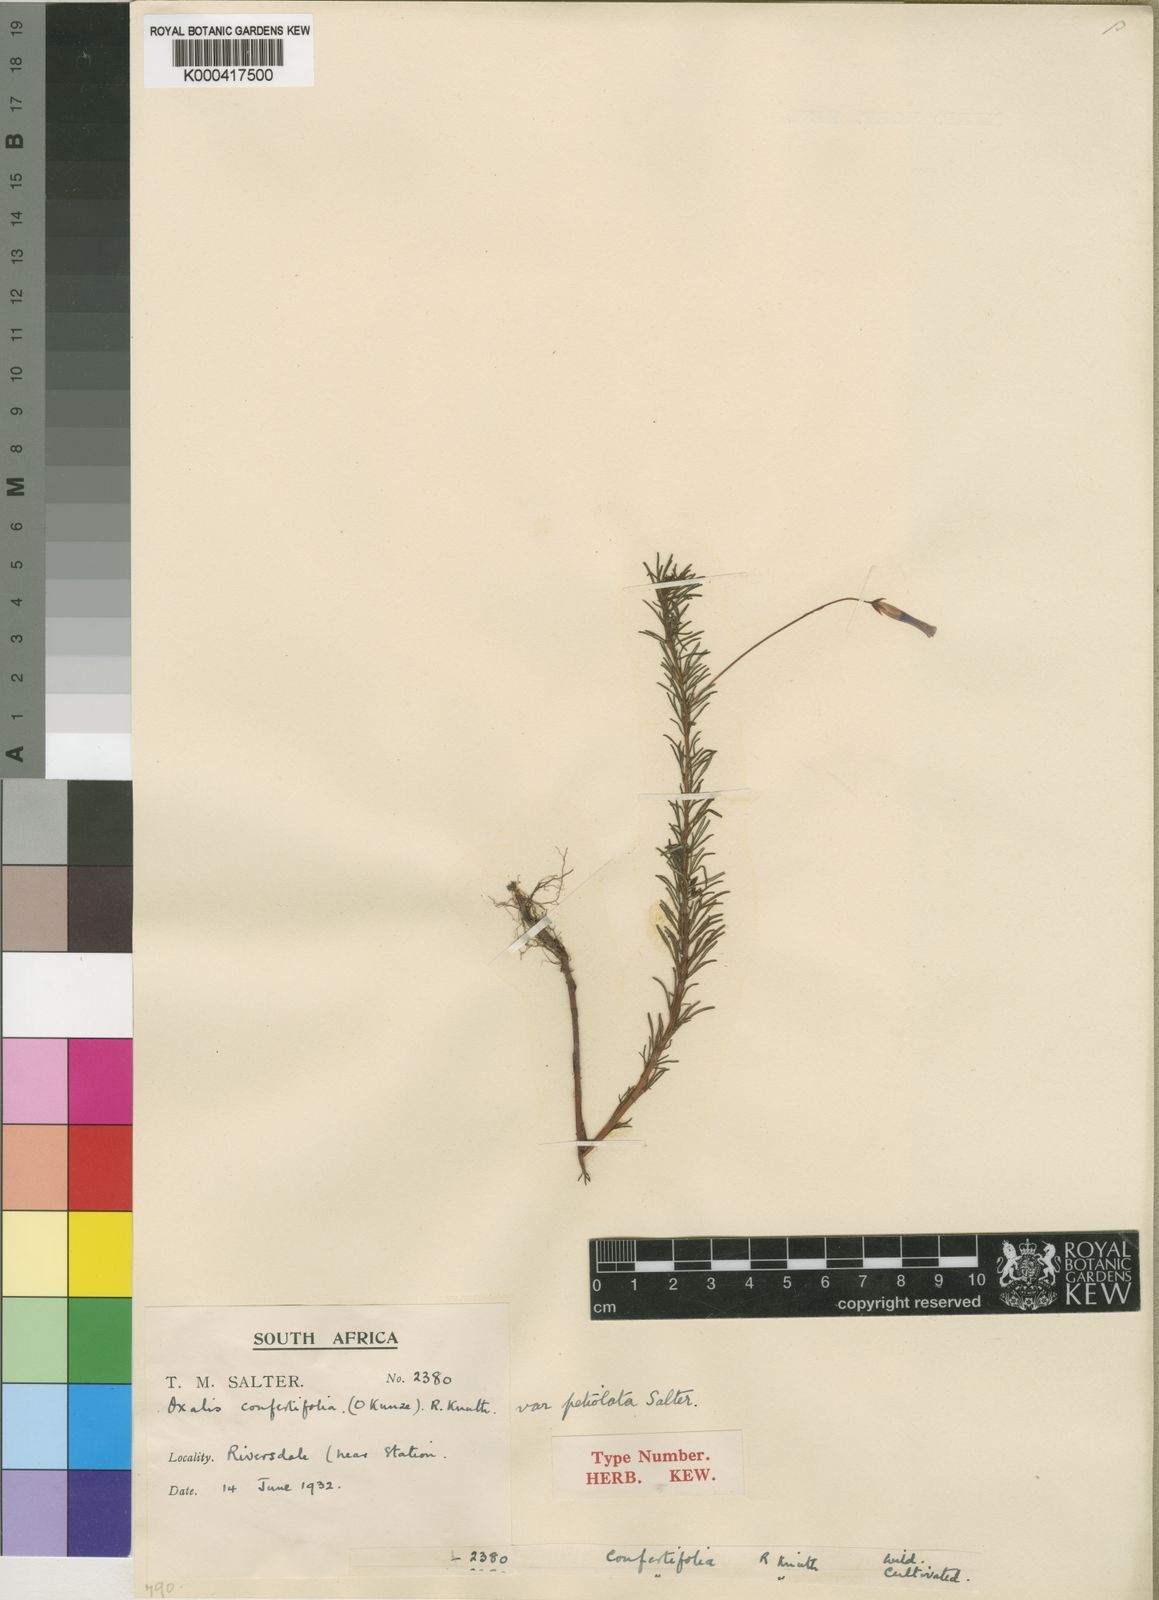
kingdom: Plantae
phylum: Tracheophyta
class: Magnoliopsida
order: Oxalidales
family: Oxalidaceae
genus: Oxalis
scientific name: Oxalis confertifolia
